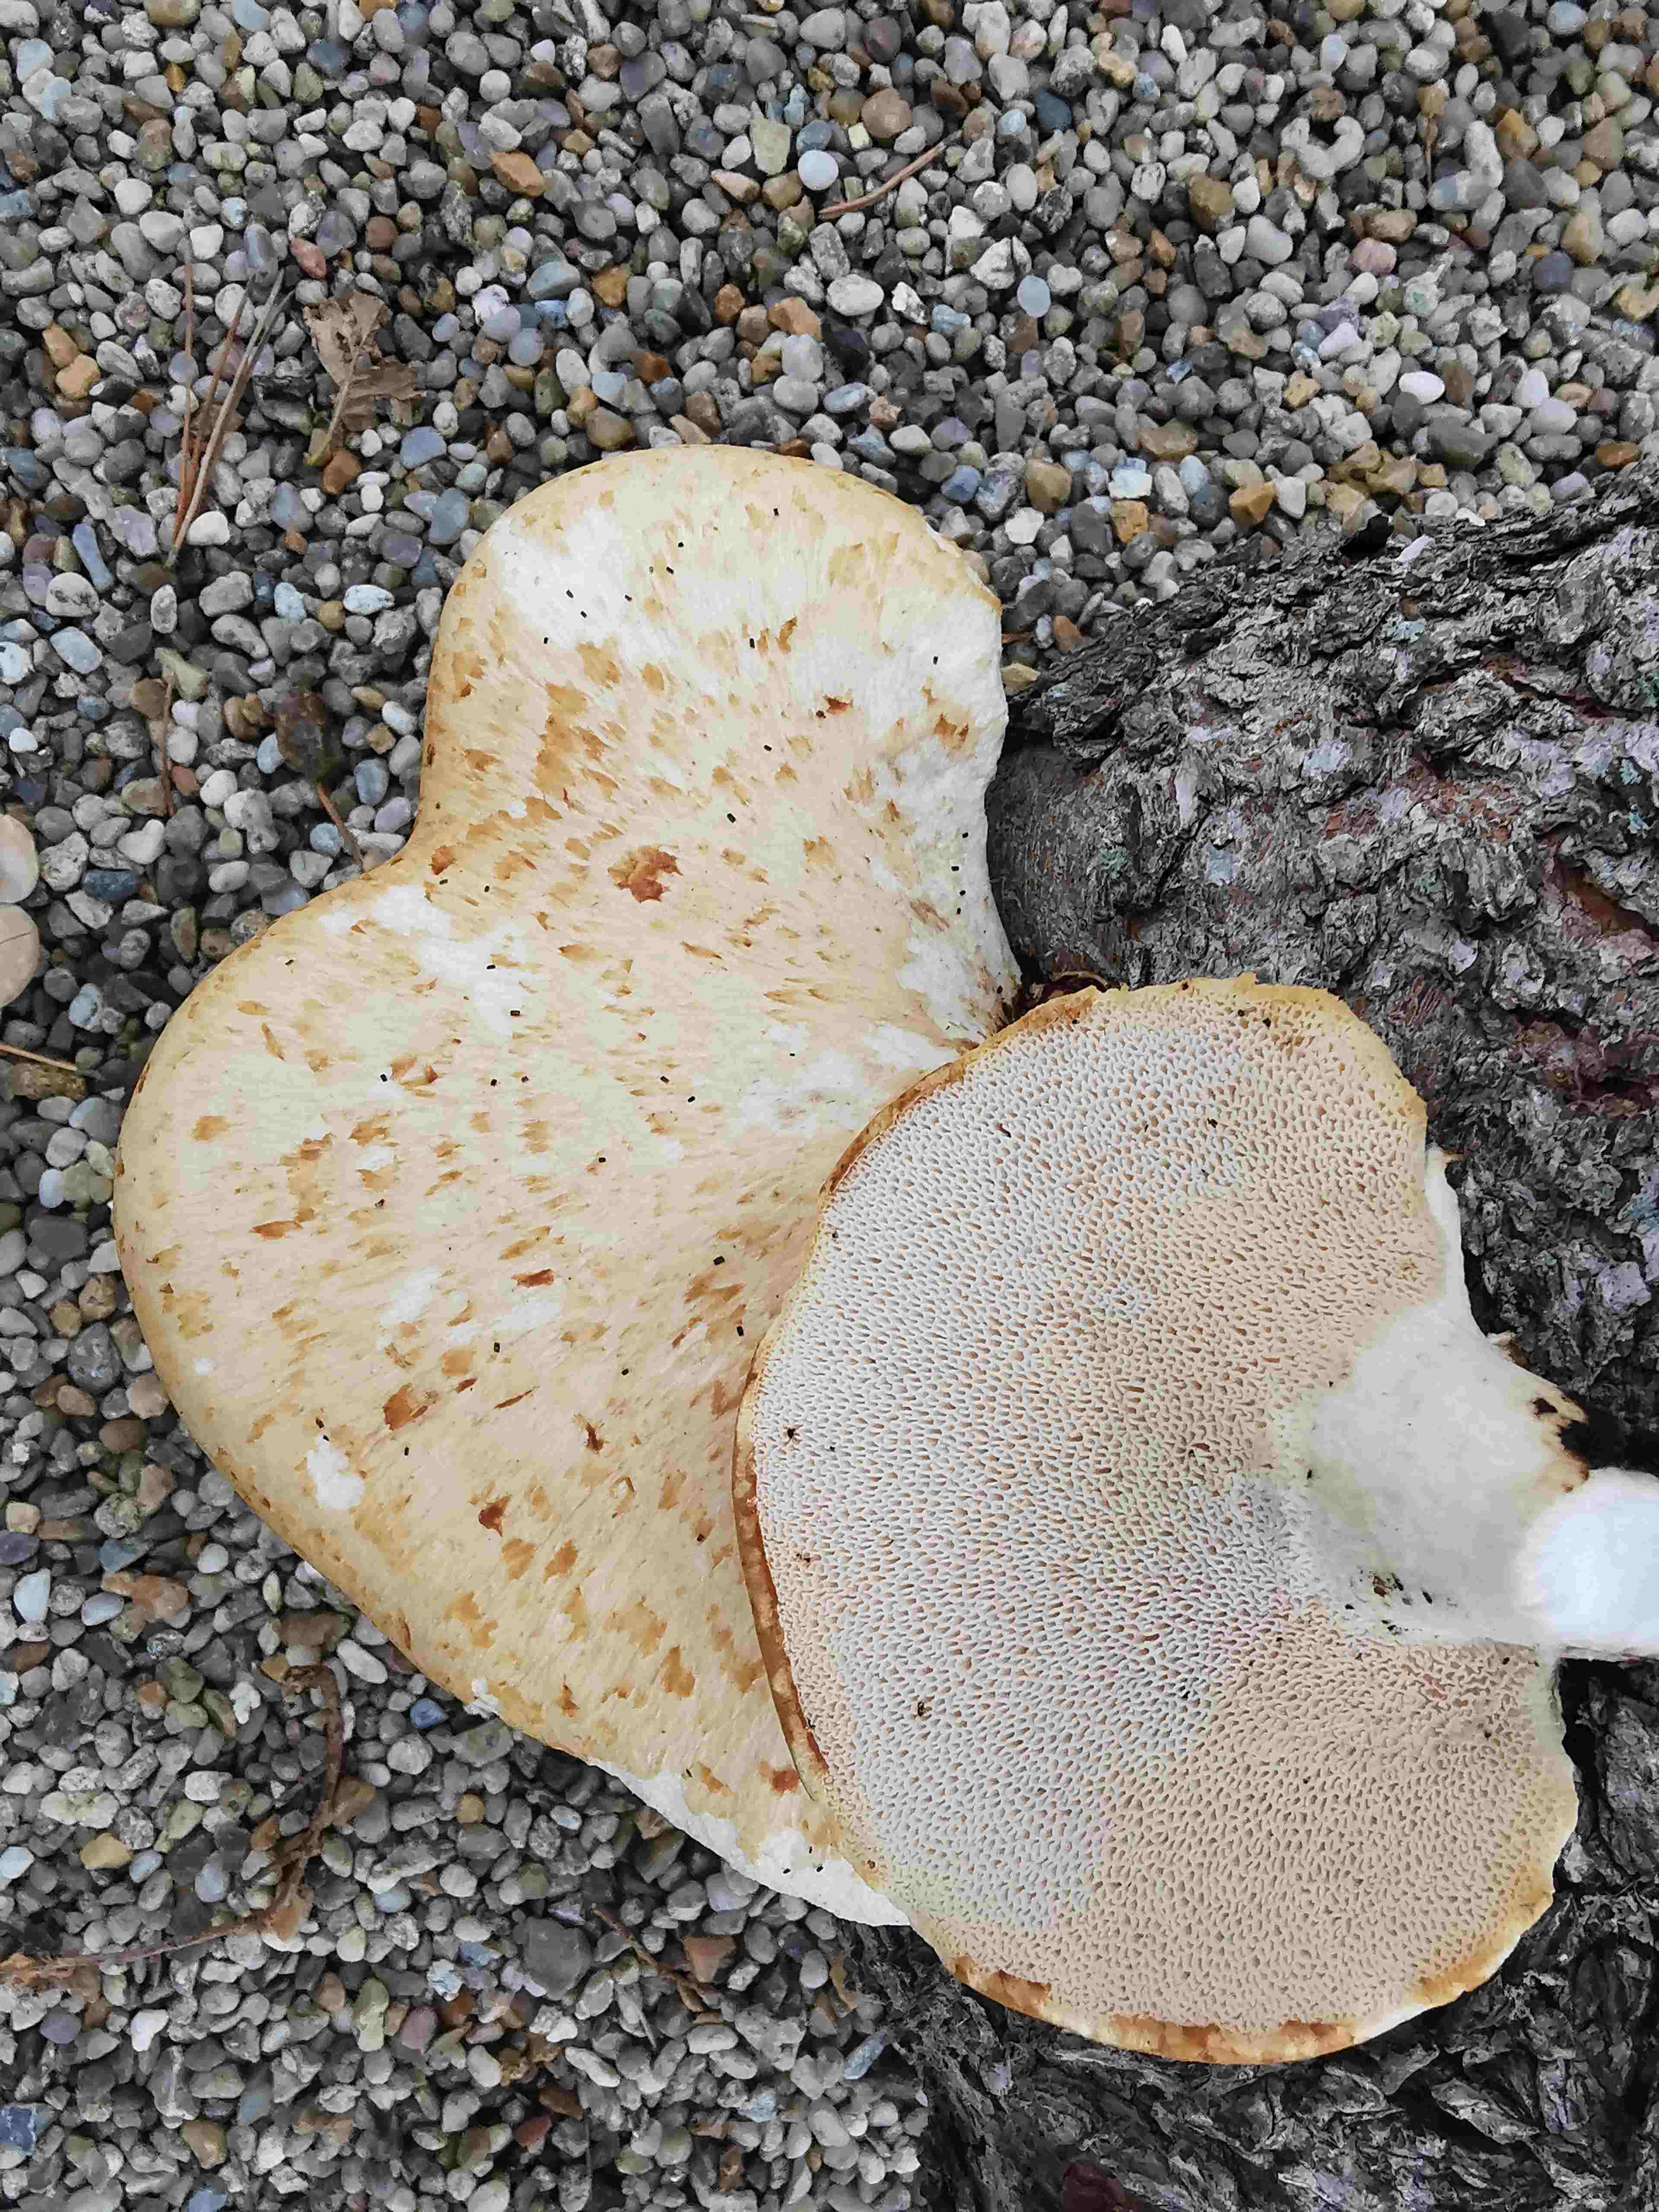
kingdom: Fungi
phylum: Basidiomycota
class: Agaricomycetes
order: Polyporales
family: Polyporaceae
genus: Cerioporus
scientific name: Cerioporus squamosus
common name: skællet stilkporesvamp
